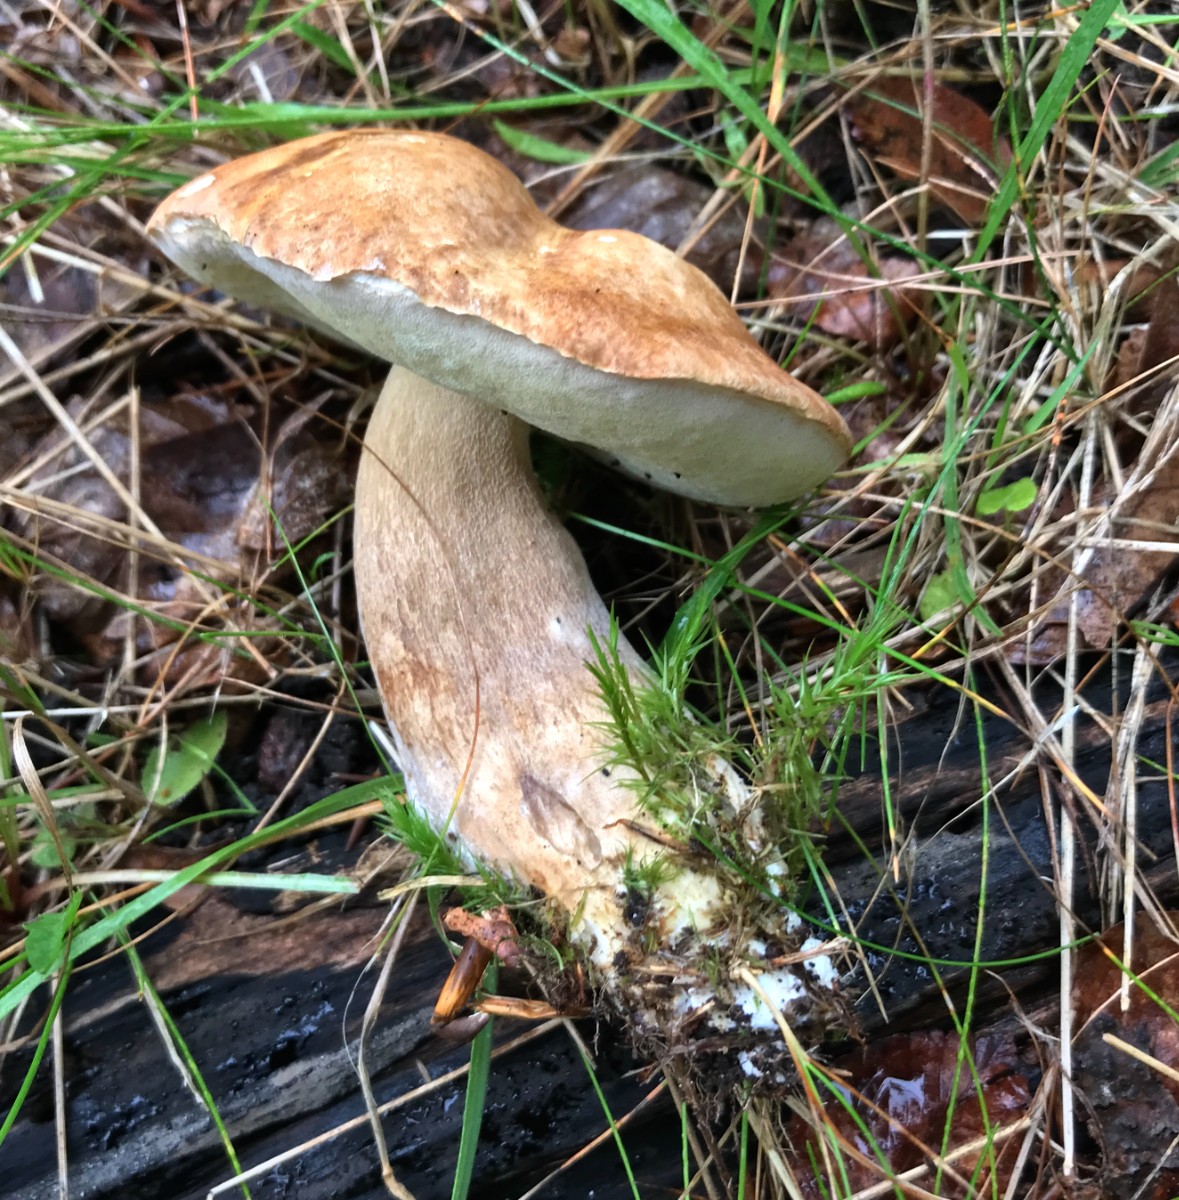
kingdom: Fungi
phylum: Basidiomycota
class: Agaricomycetes
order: Boletales
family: Boletaceae
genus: Boletus
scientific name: Boletus edulis
